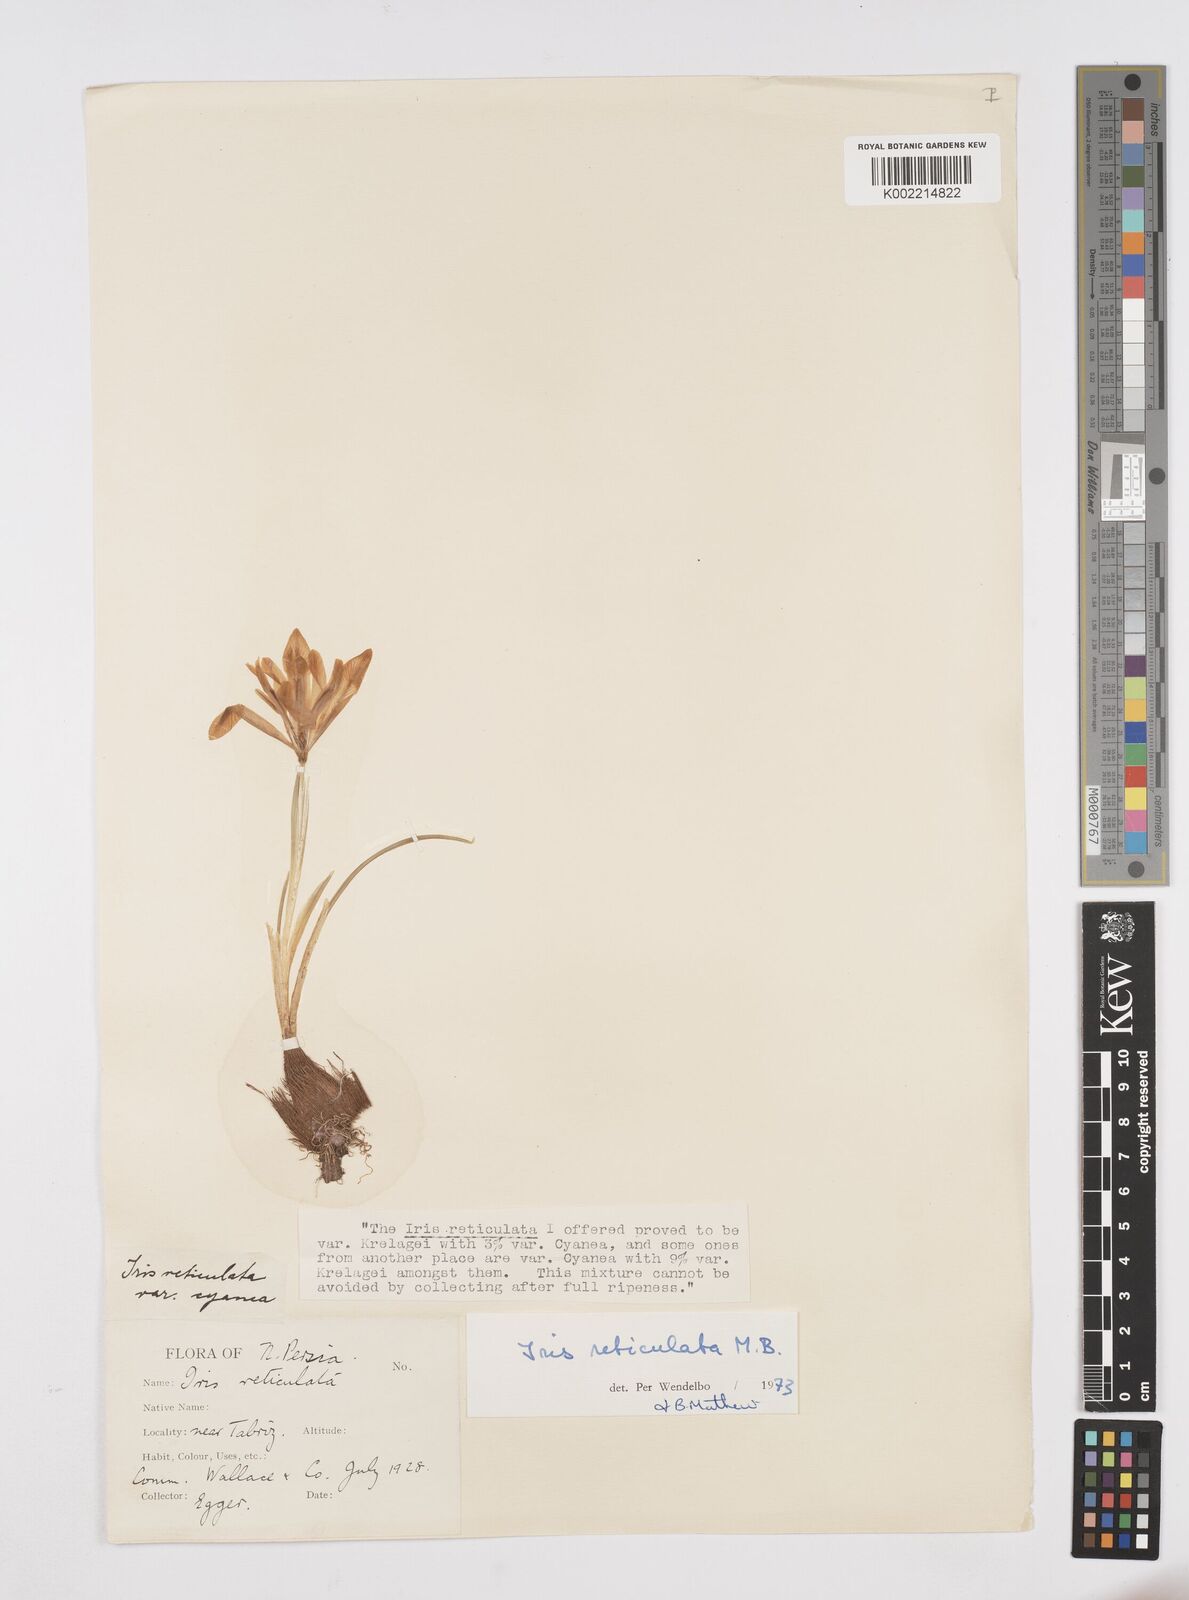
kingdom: Plantae
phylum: Tracheophyta
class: Liliopsida
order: Asparagales
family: Iridaceae
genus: Iris
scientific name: Iris reticulata
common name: Netted iris
